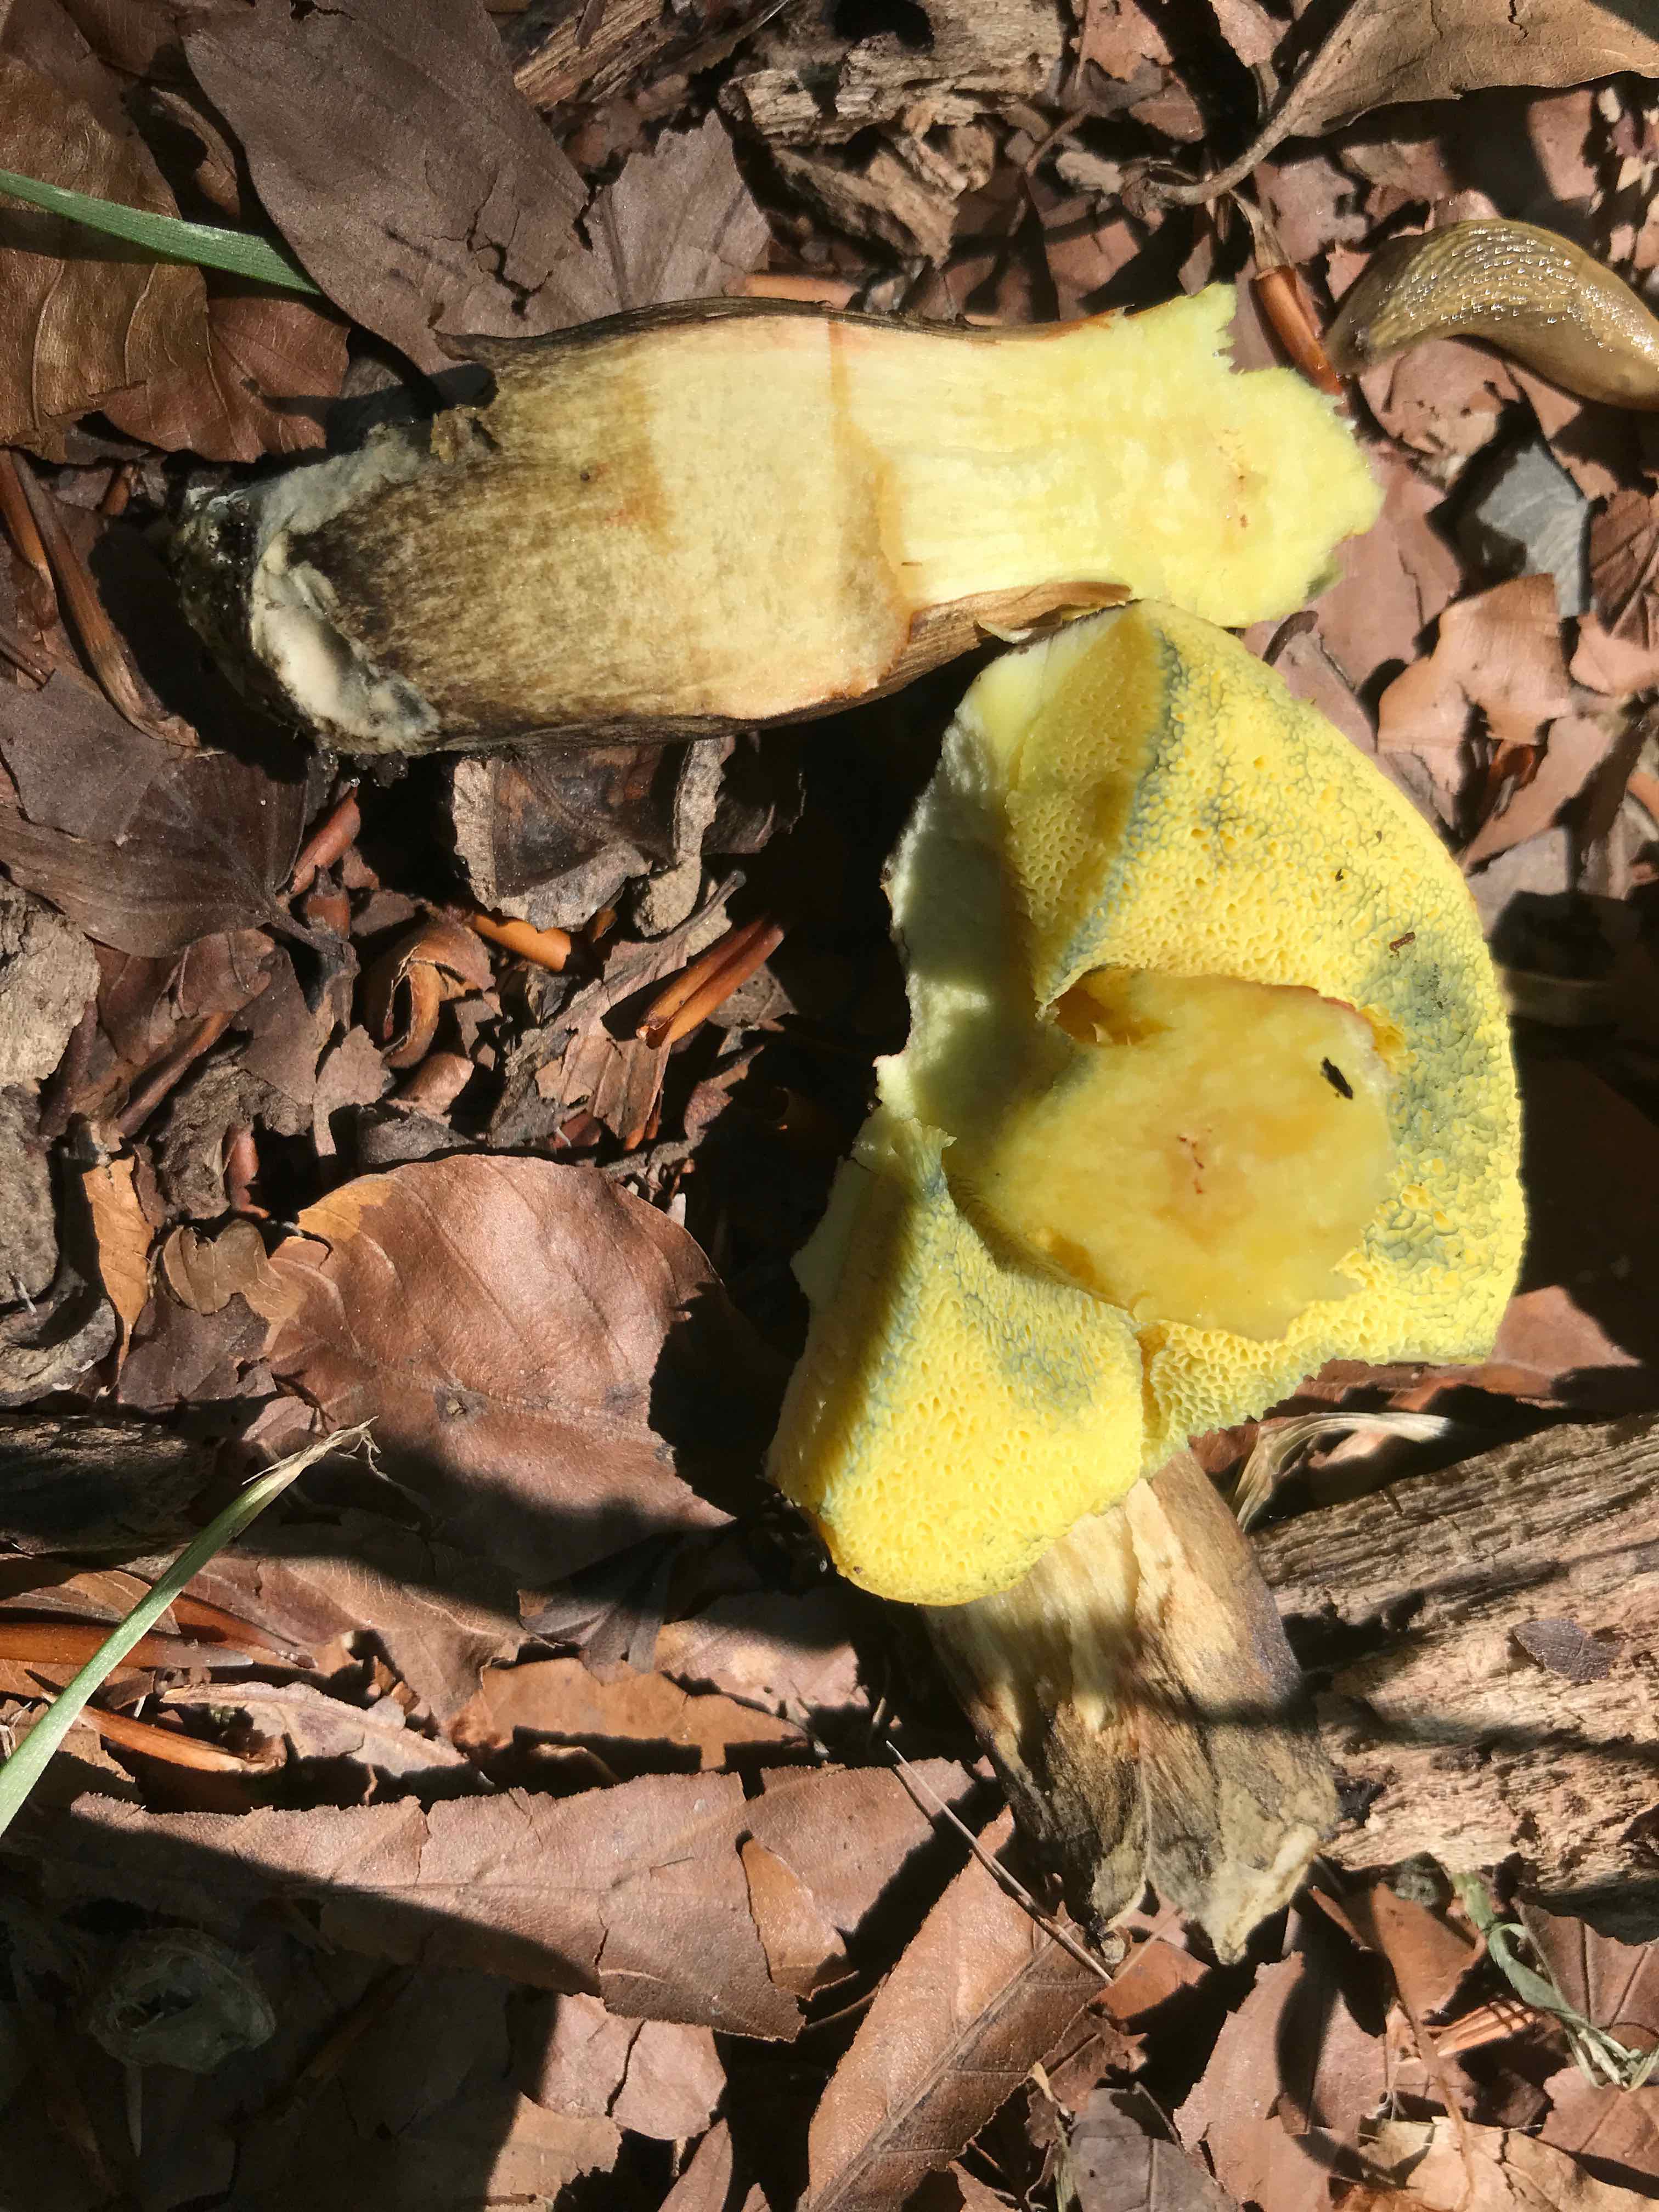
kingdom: Fungi
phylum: Basidiomycota
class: Agaricomycetes
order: Boletales
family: Boletaceae
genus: Xerocomellus
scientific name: Xerocomellus porosporus
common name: hvidsprukken rørhat
